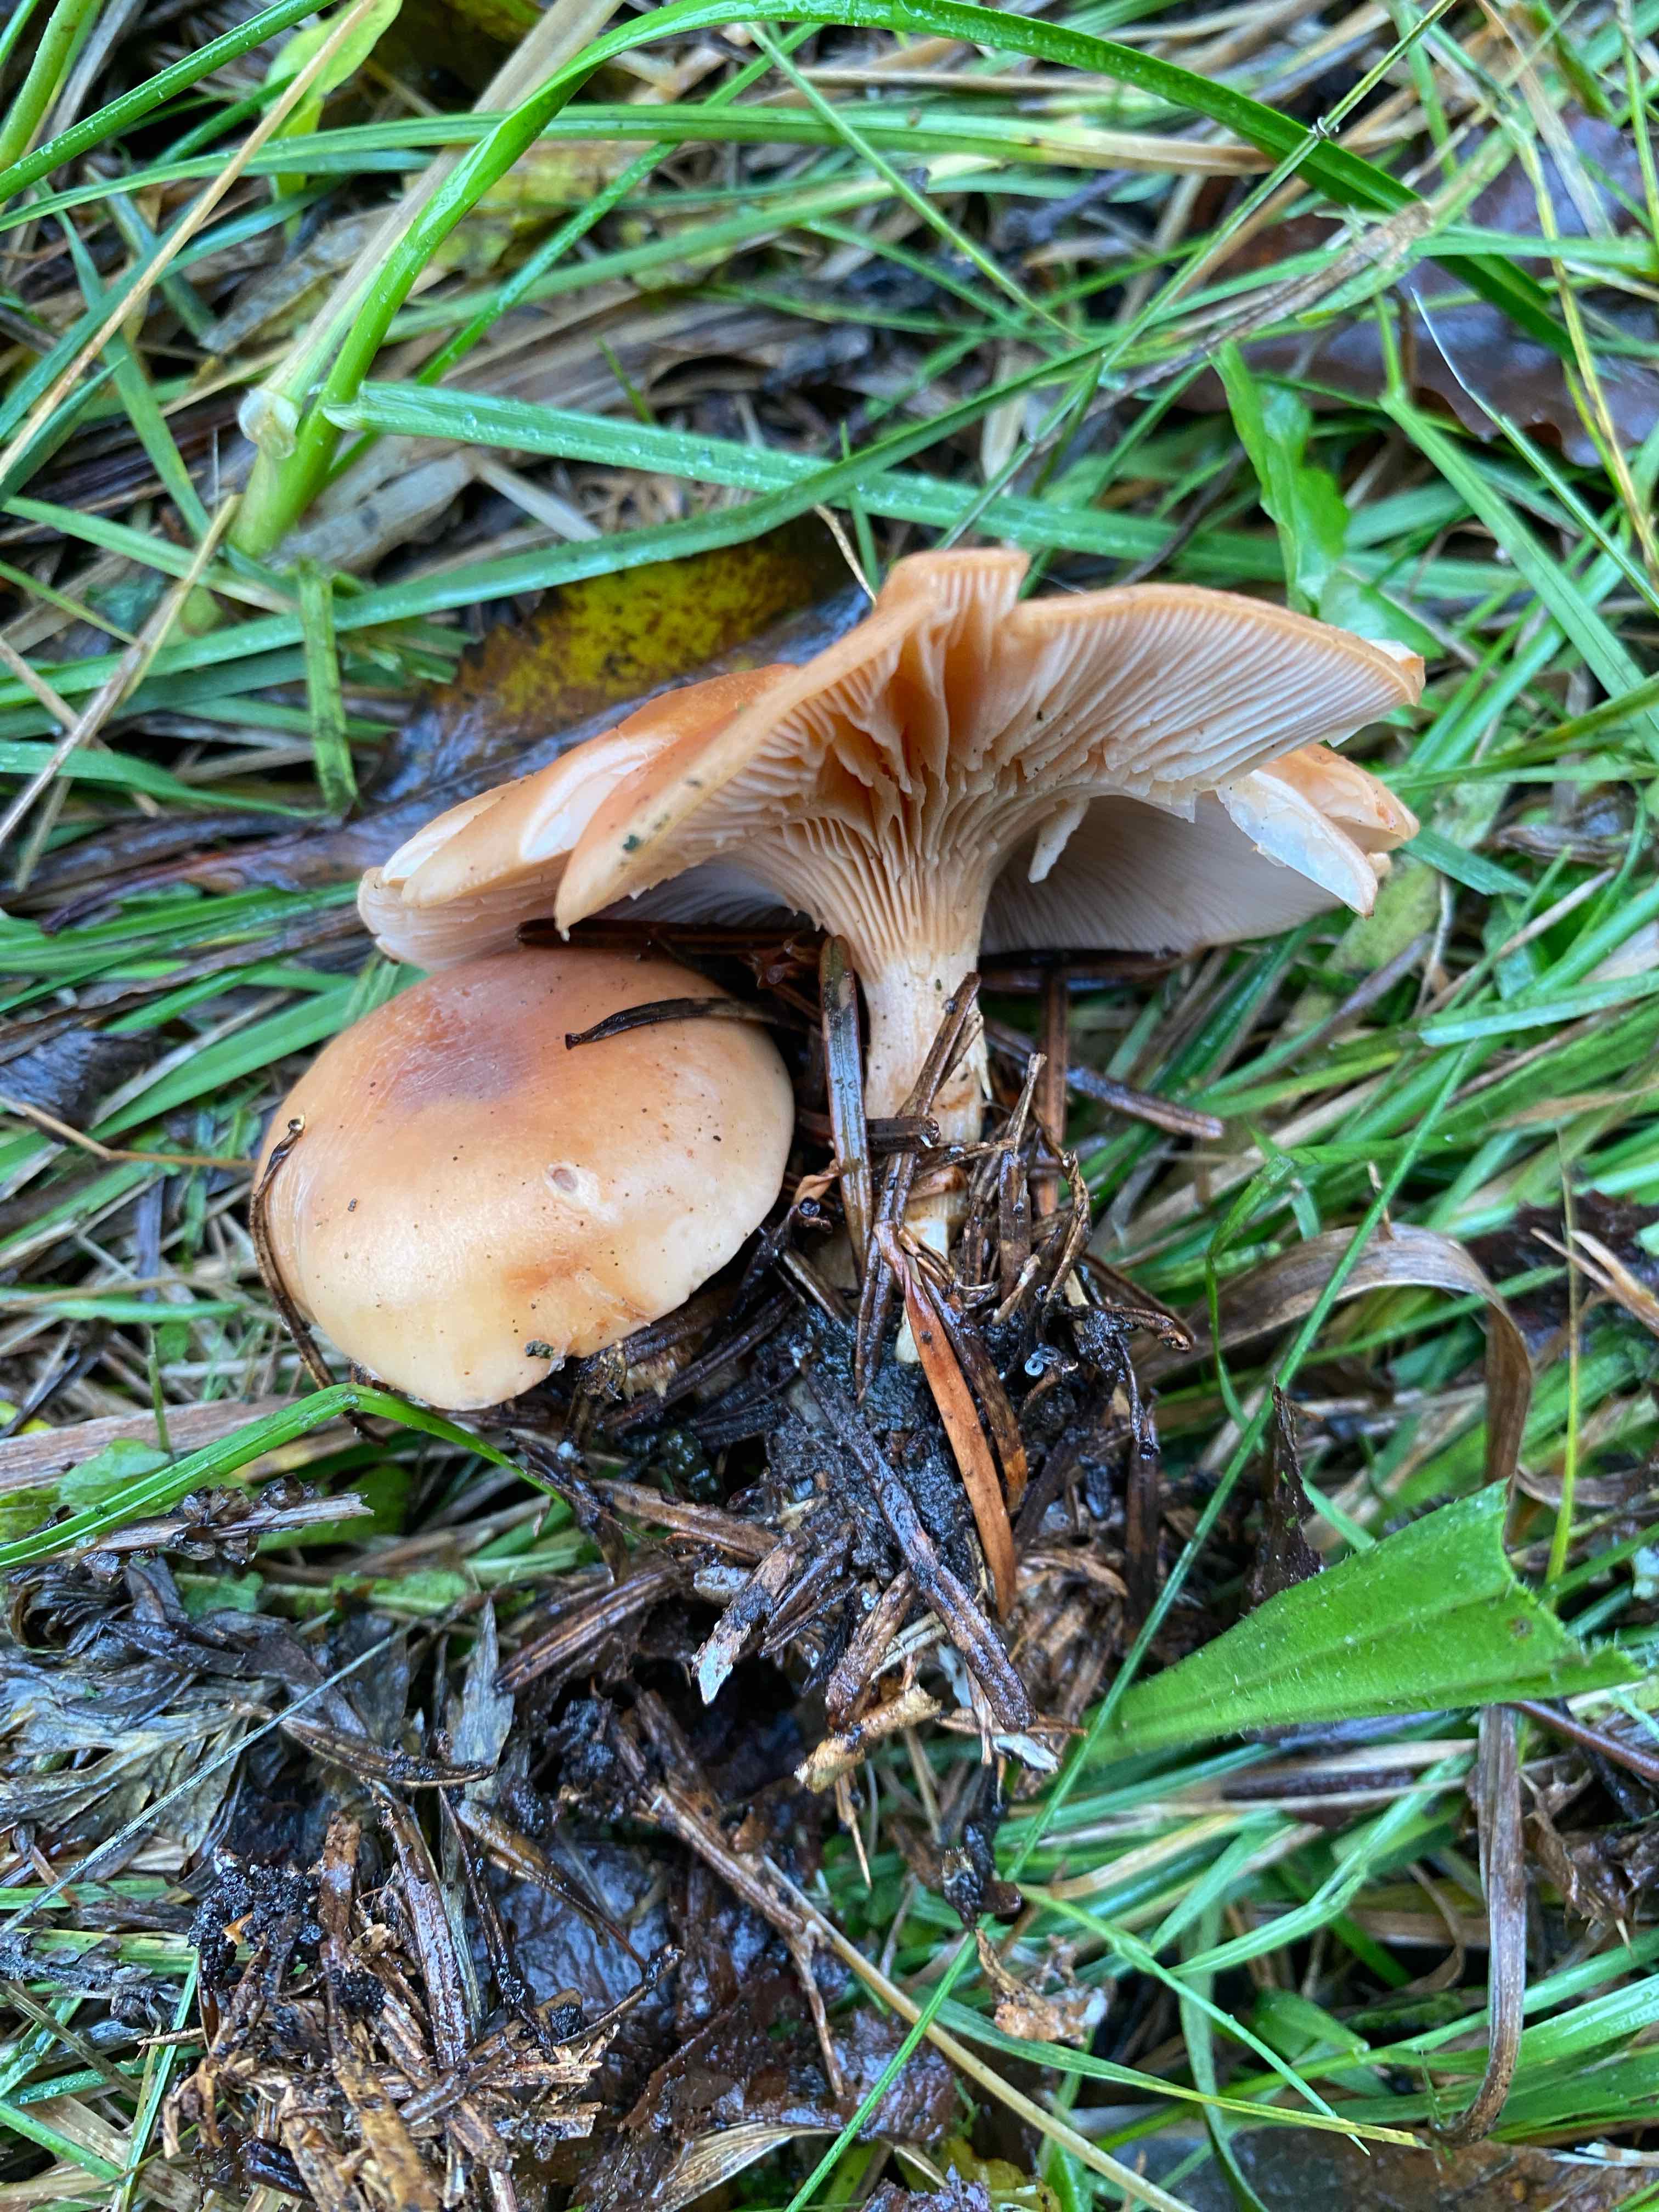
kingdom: Fungi
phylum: Basidiomycota
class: Agaricomycetes
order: Agaricales
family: Tricholomataceae
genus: Paralepista
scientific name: Paralepista flaccida
